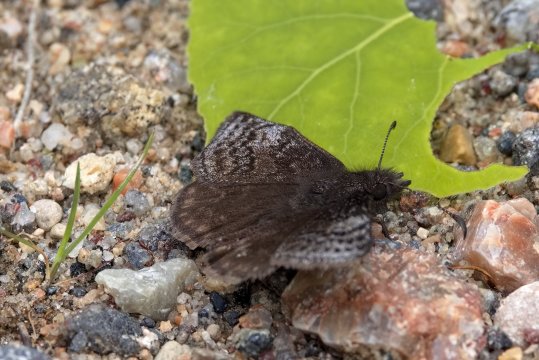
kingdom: Animalia
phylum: Arthropoda
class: Insecta
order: Lepidoptera
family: Hesperiidae
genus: Erynnis
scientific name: Erynnis icelus
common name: Dreamy Duskywing
